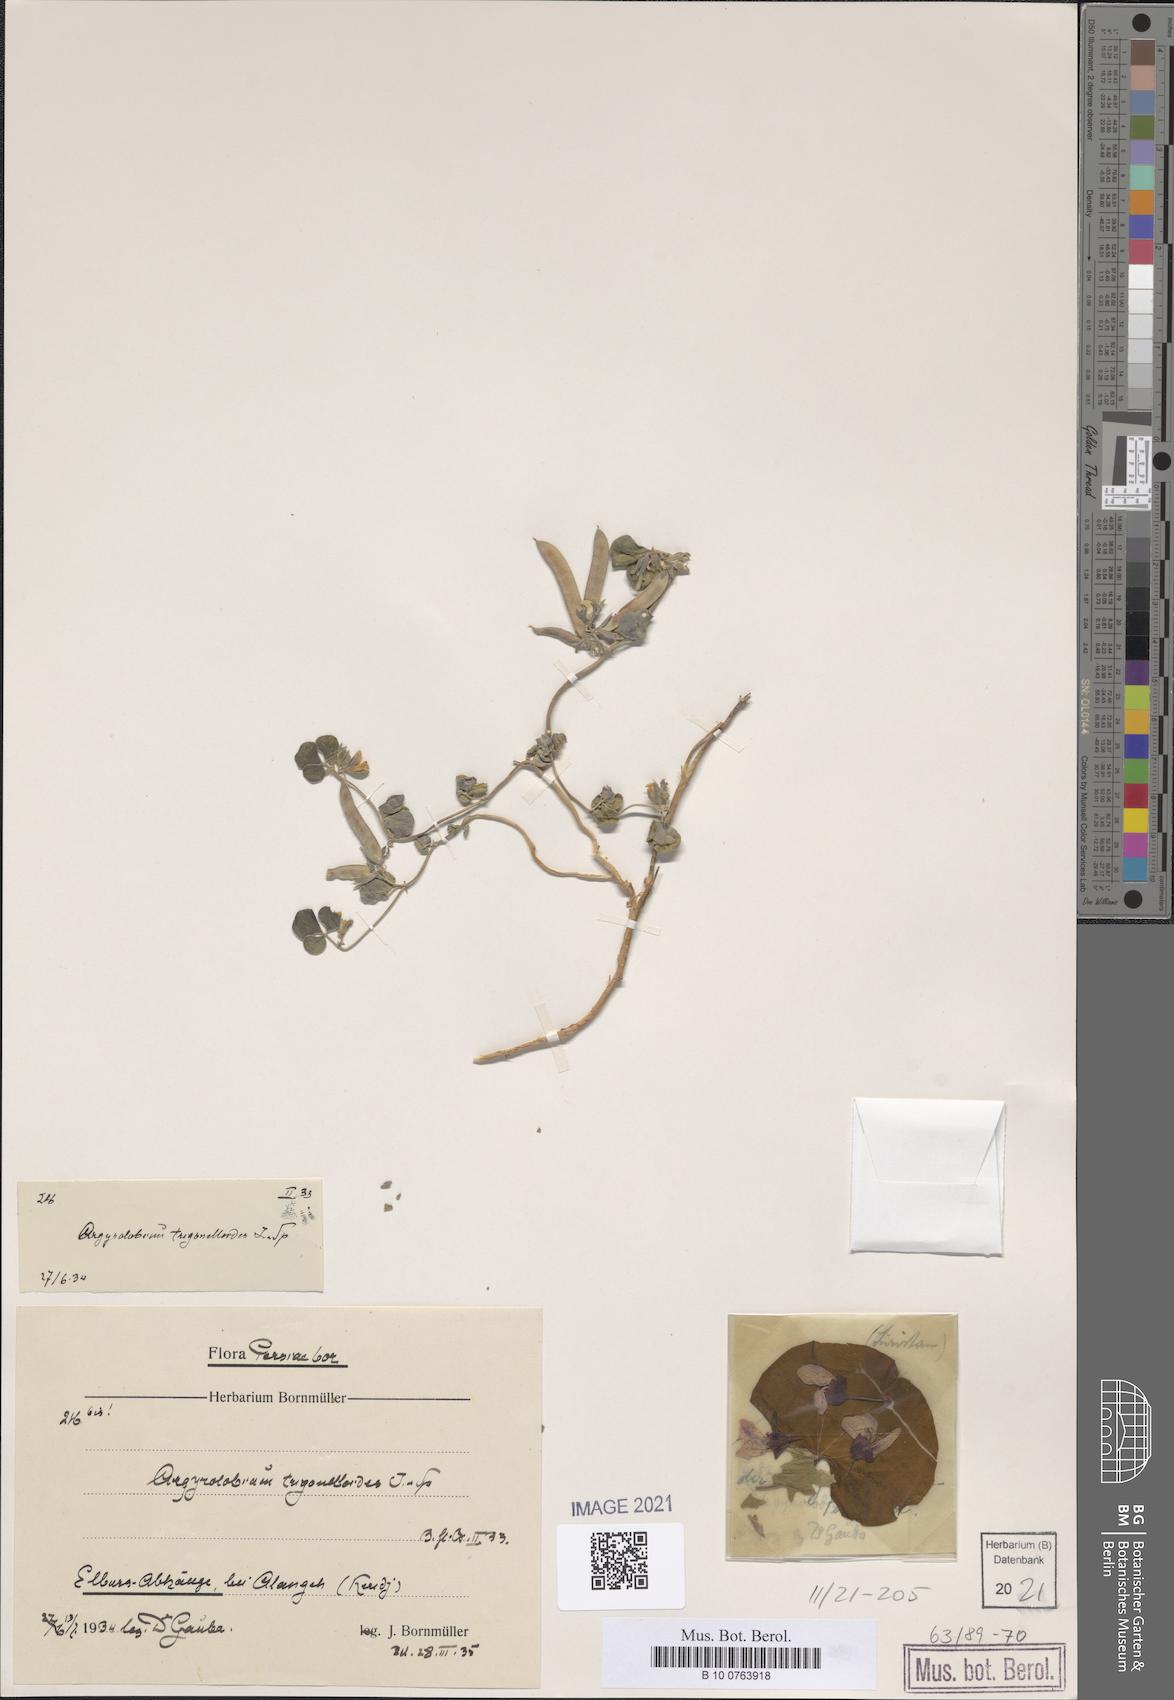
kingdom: Plantae
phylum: Tracheophyta
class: Magnoliopsida
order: Fabales
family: Fabaceae
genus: Argyrolobium
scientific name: Argyrolobium roseum
